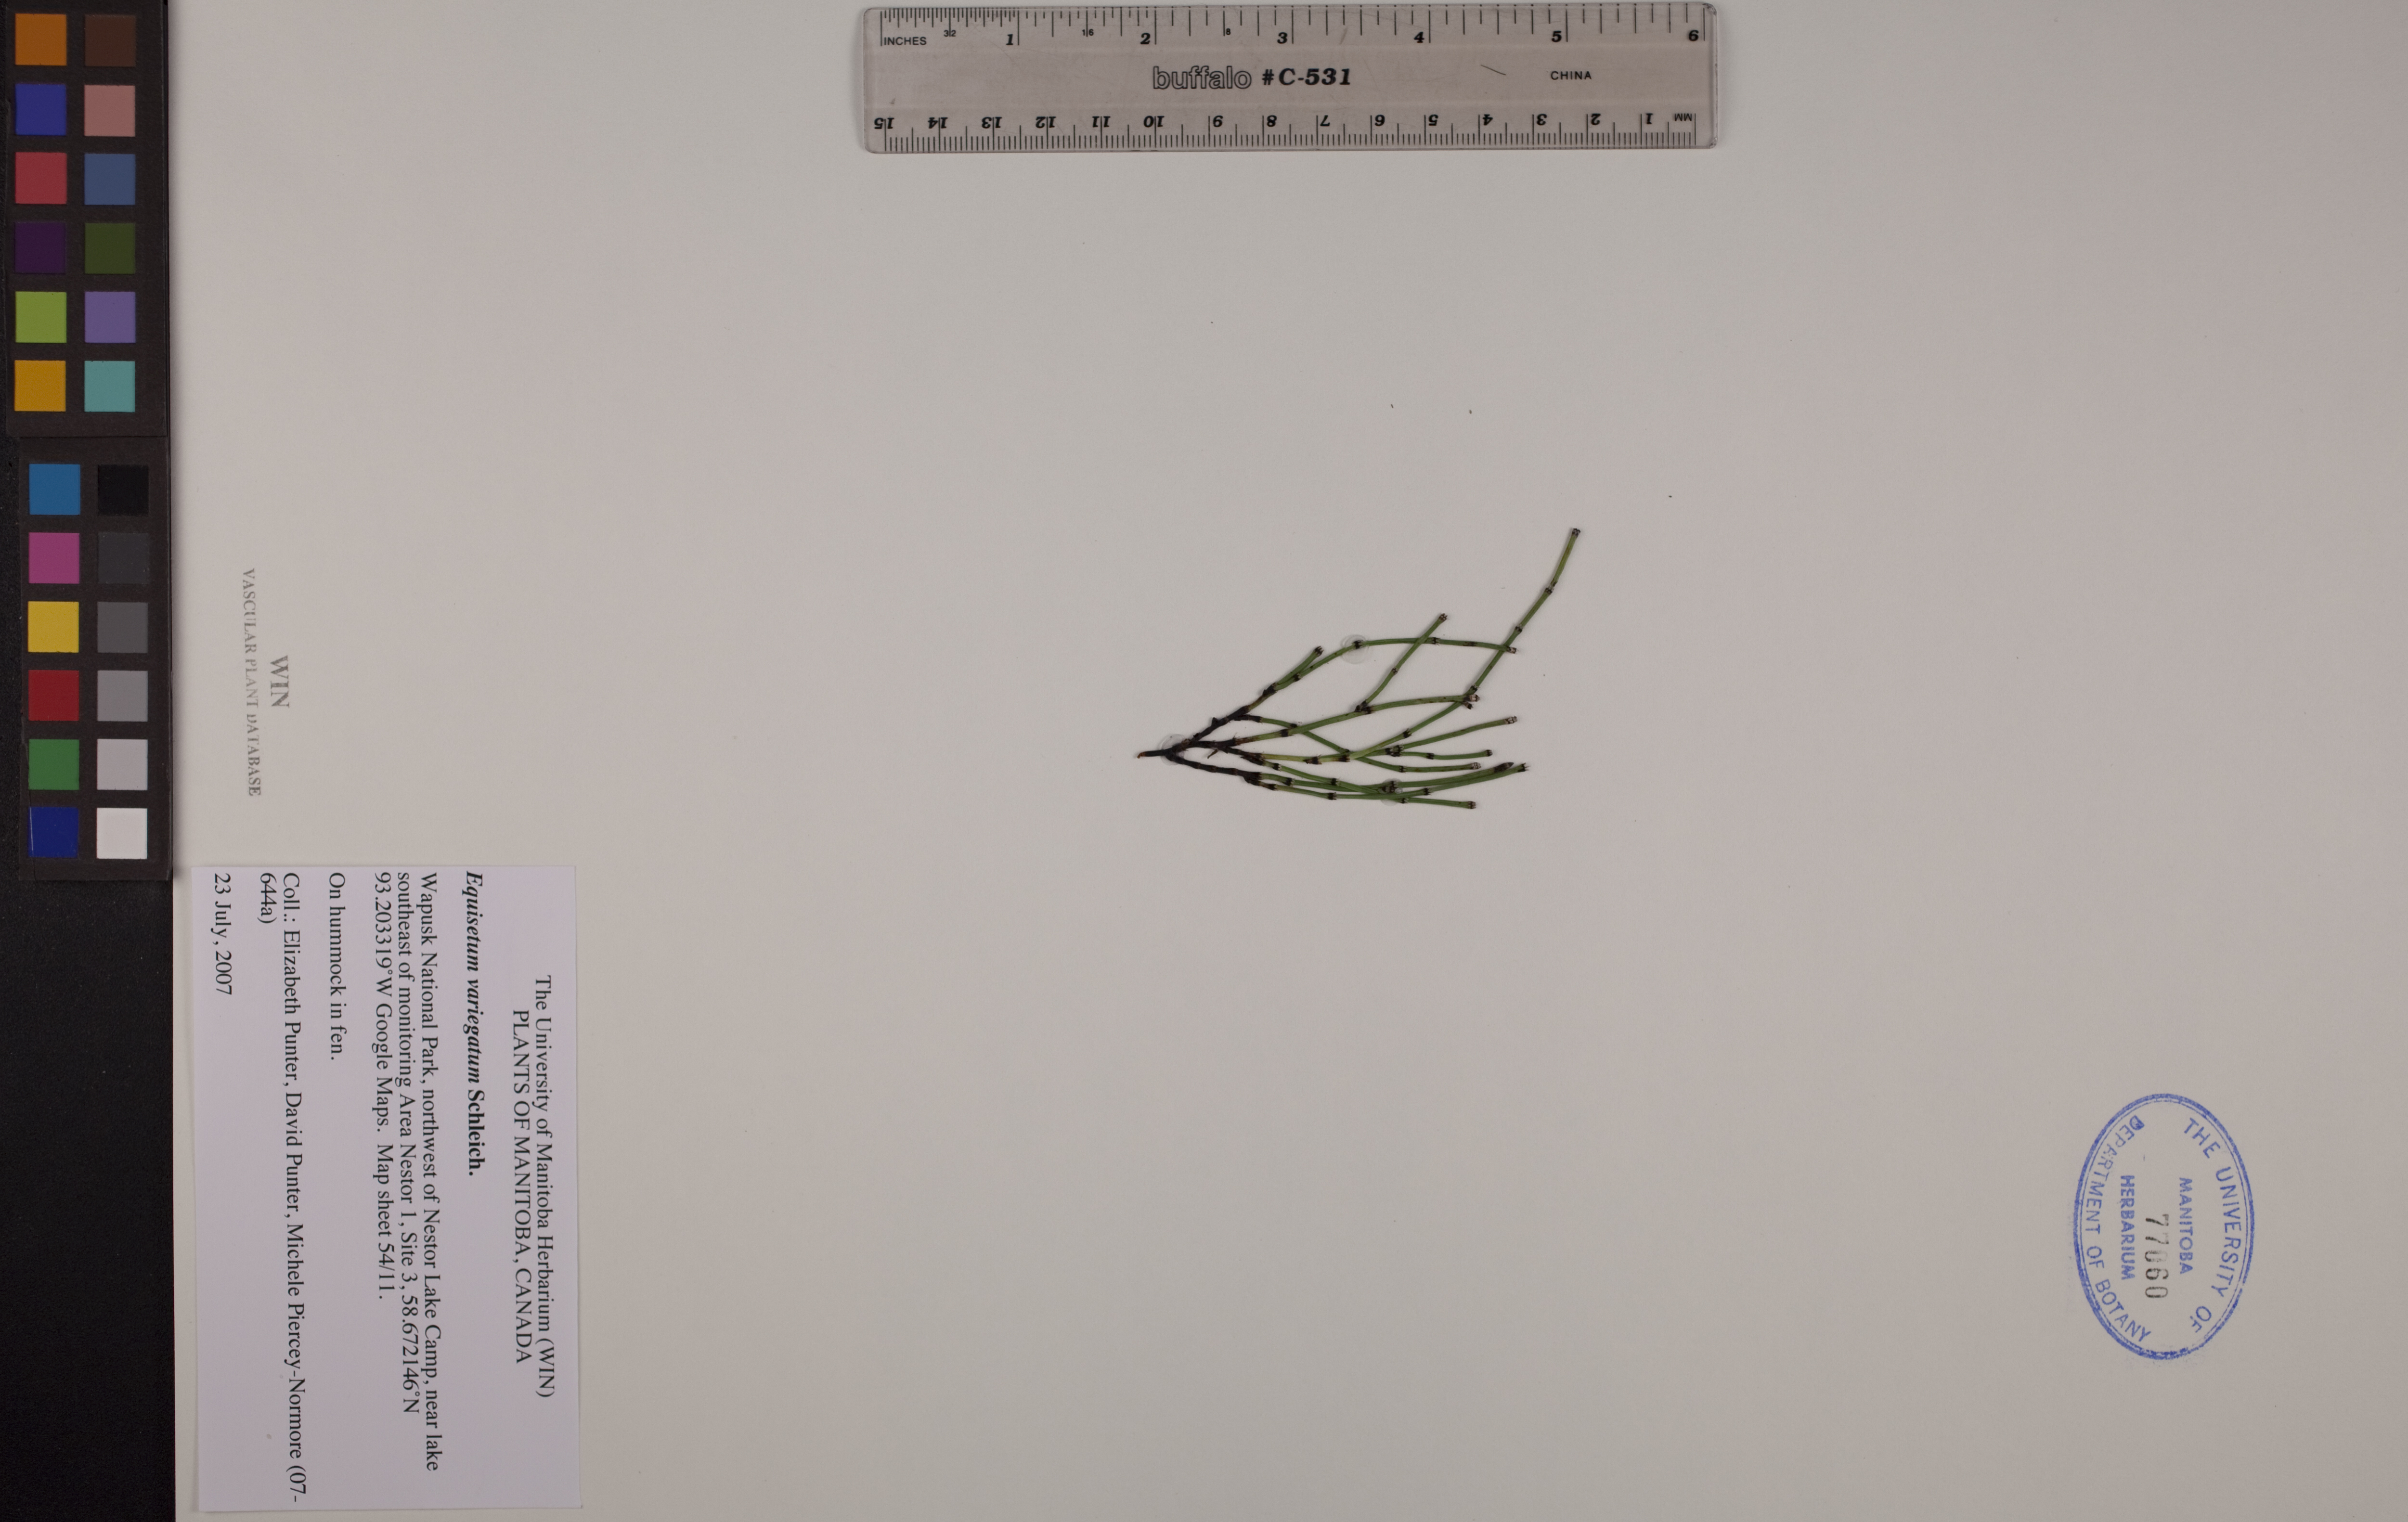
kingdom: Plantae
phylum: Tracheophyta
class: Polypodiopsida
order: Equisetales
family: Equisetaceae
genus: Equisetum
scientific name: Equisetum variegatum
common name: Variegated horsetail
